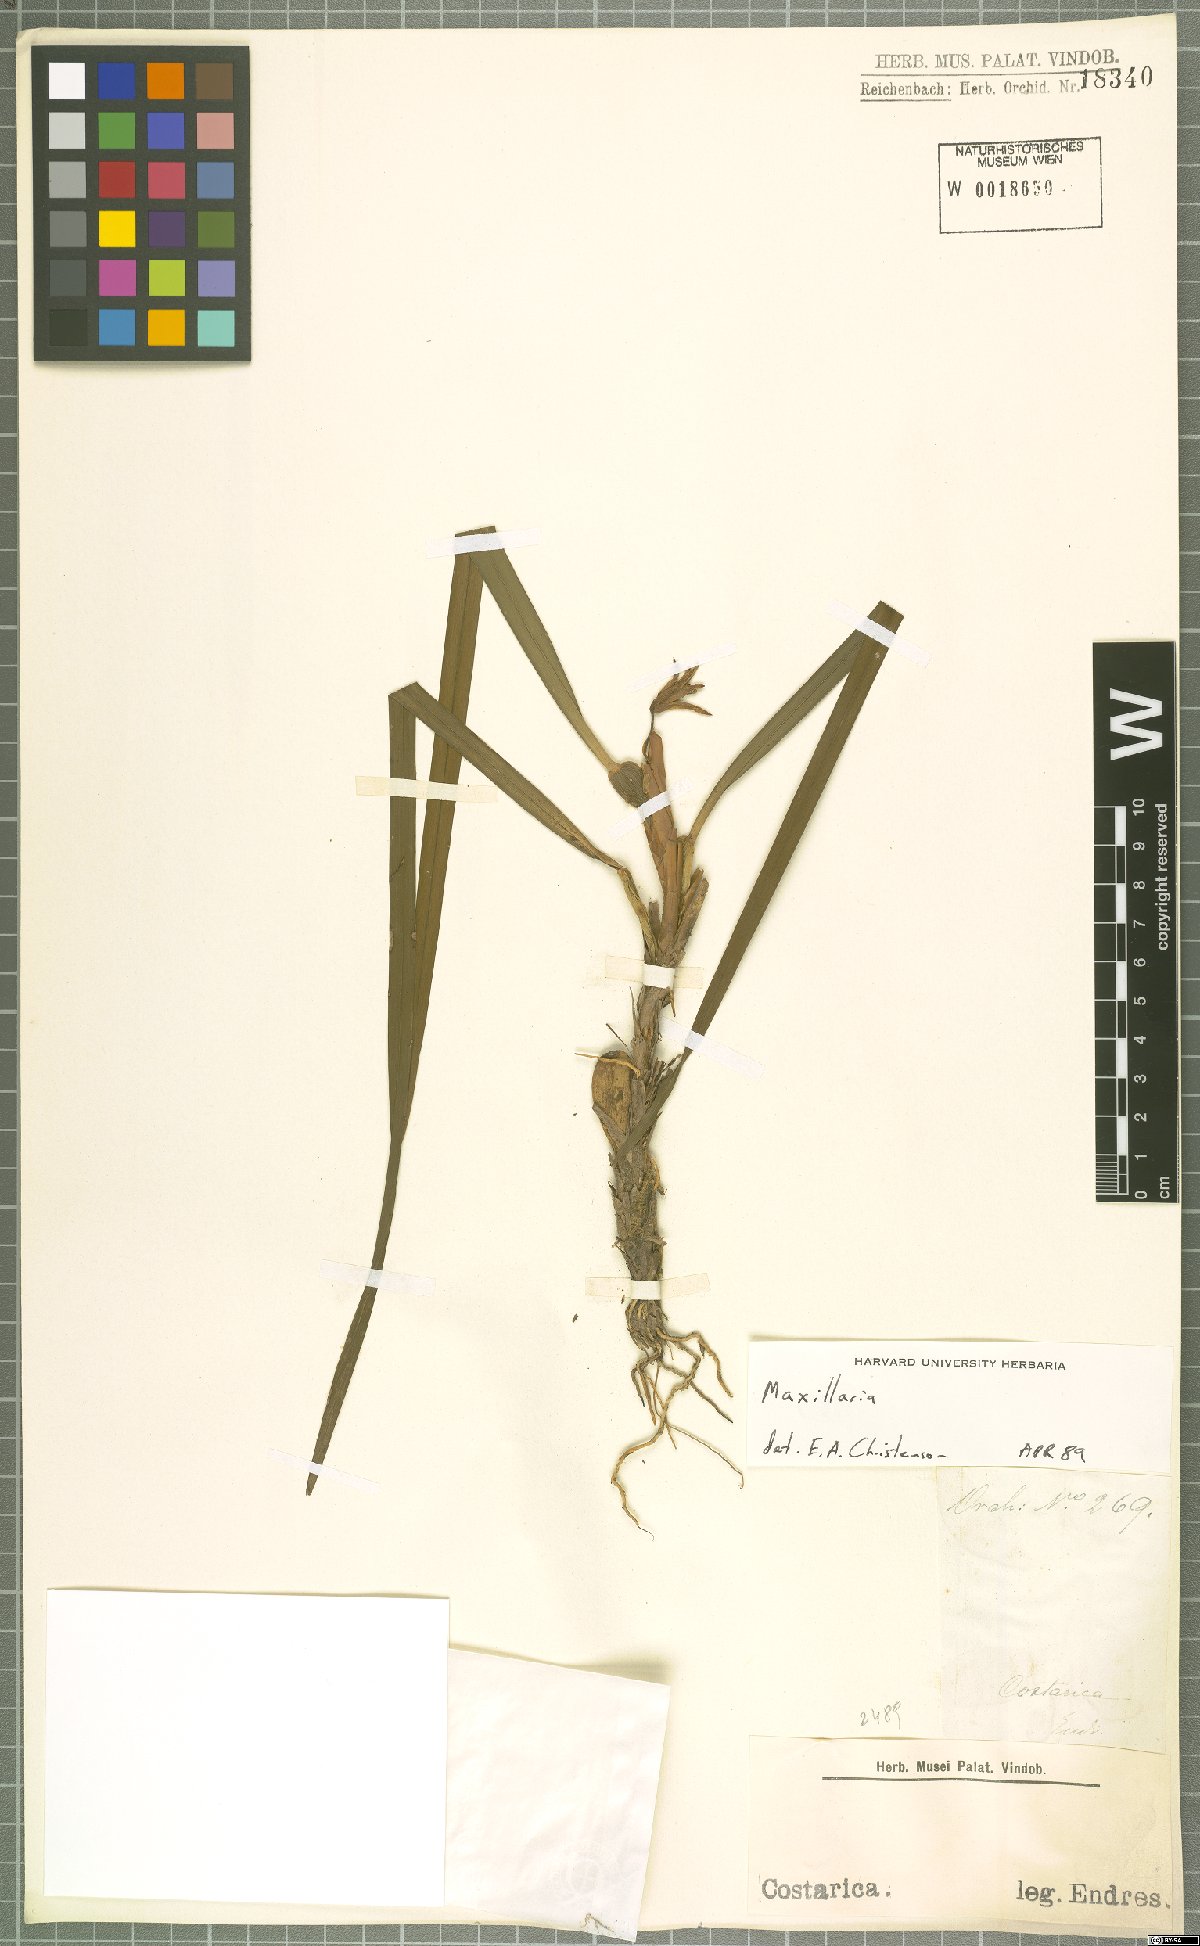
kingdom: Plantae
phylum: Tracheophyta
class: Liliopsida
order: Asparagales
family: Orchidaceae
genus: Maxillaria
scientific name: Maxillaria
